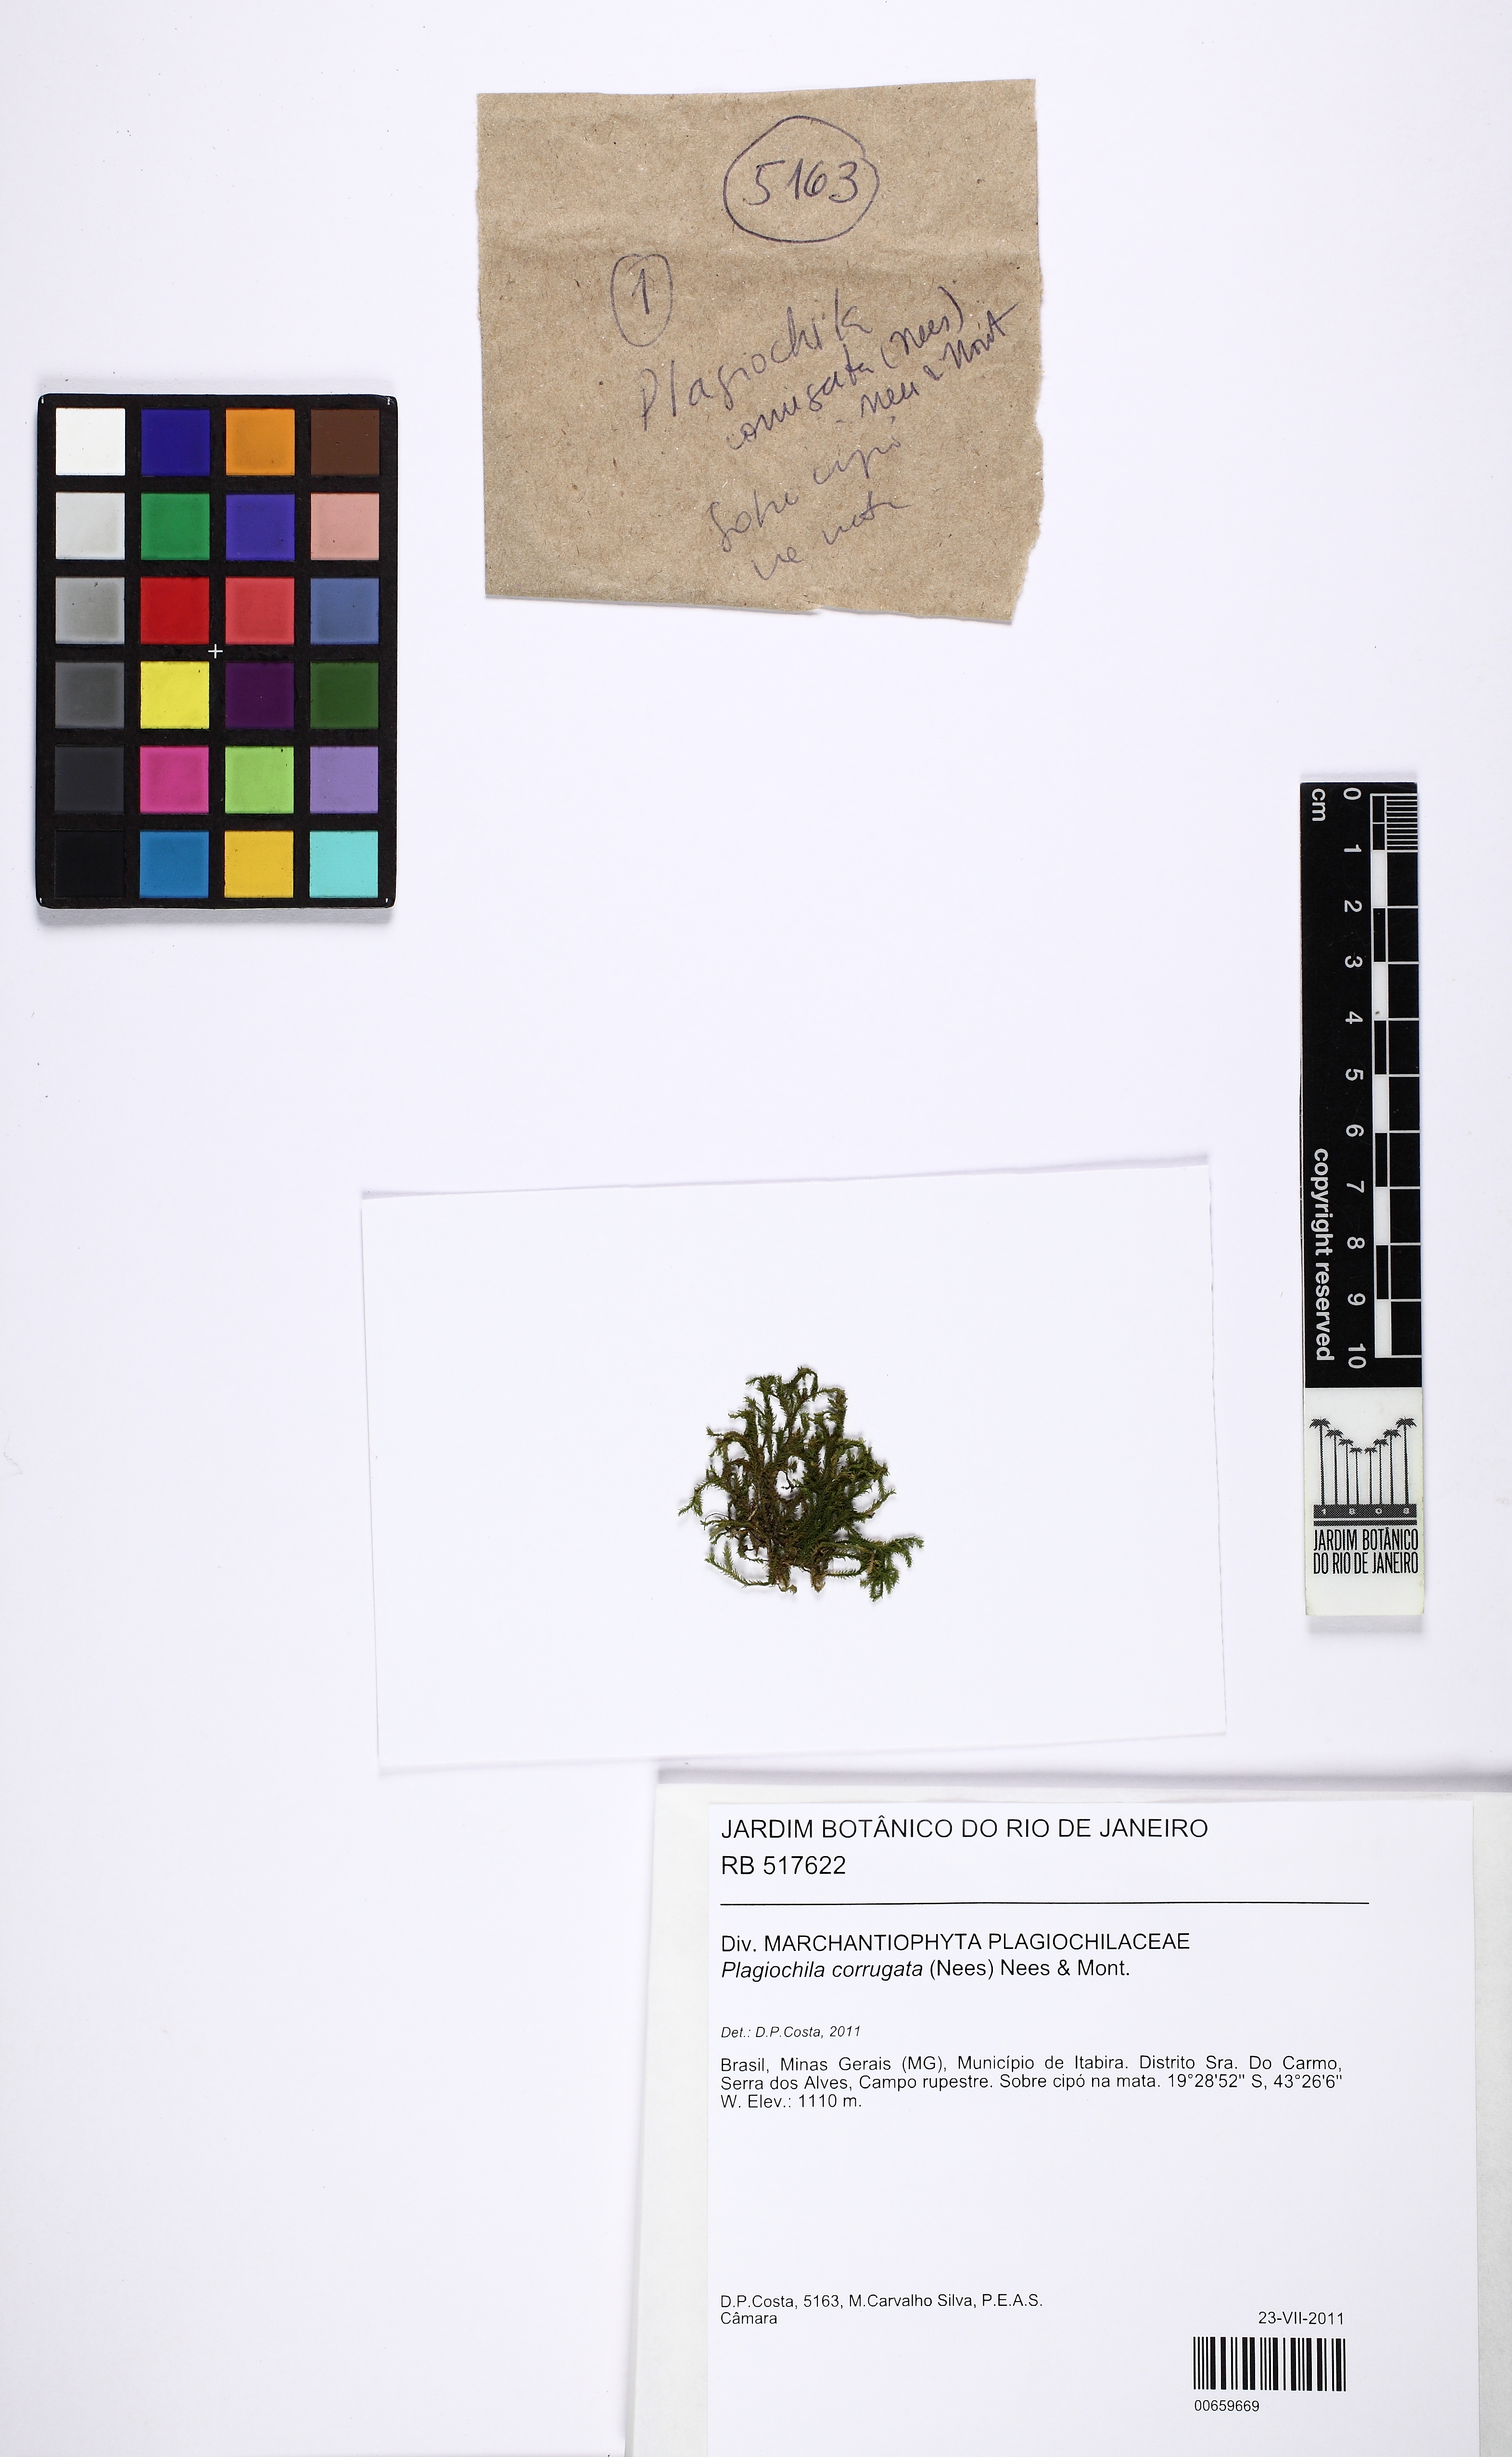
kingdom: Plantae
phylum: Marchantiophyta
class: Jungermanniopsida
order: Jungermanniales
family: Plagiochilaceae
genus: Plagiochila
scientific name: Plagiochila corrugata
